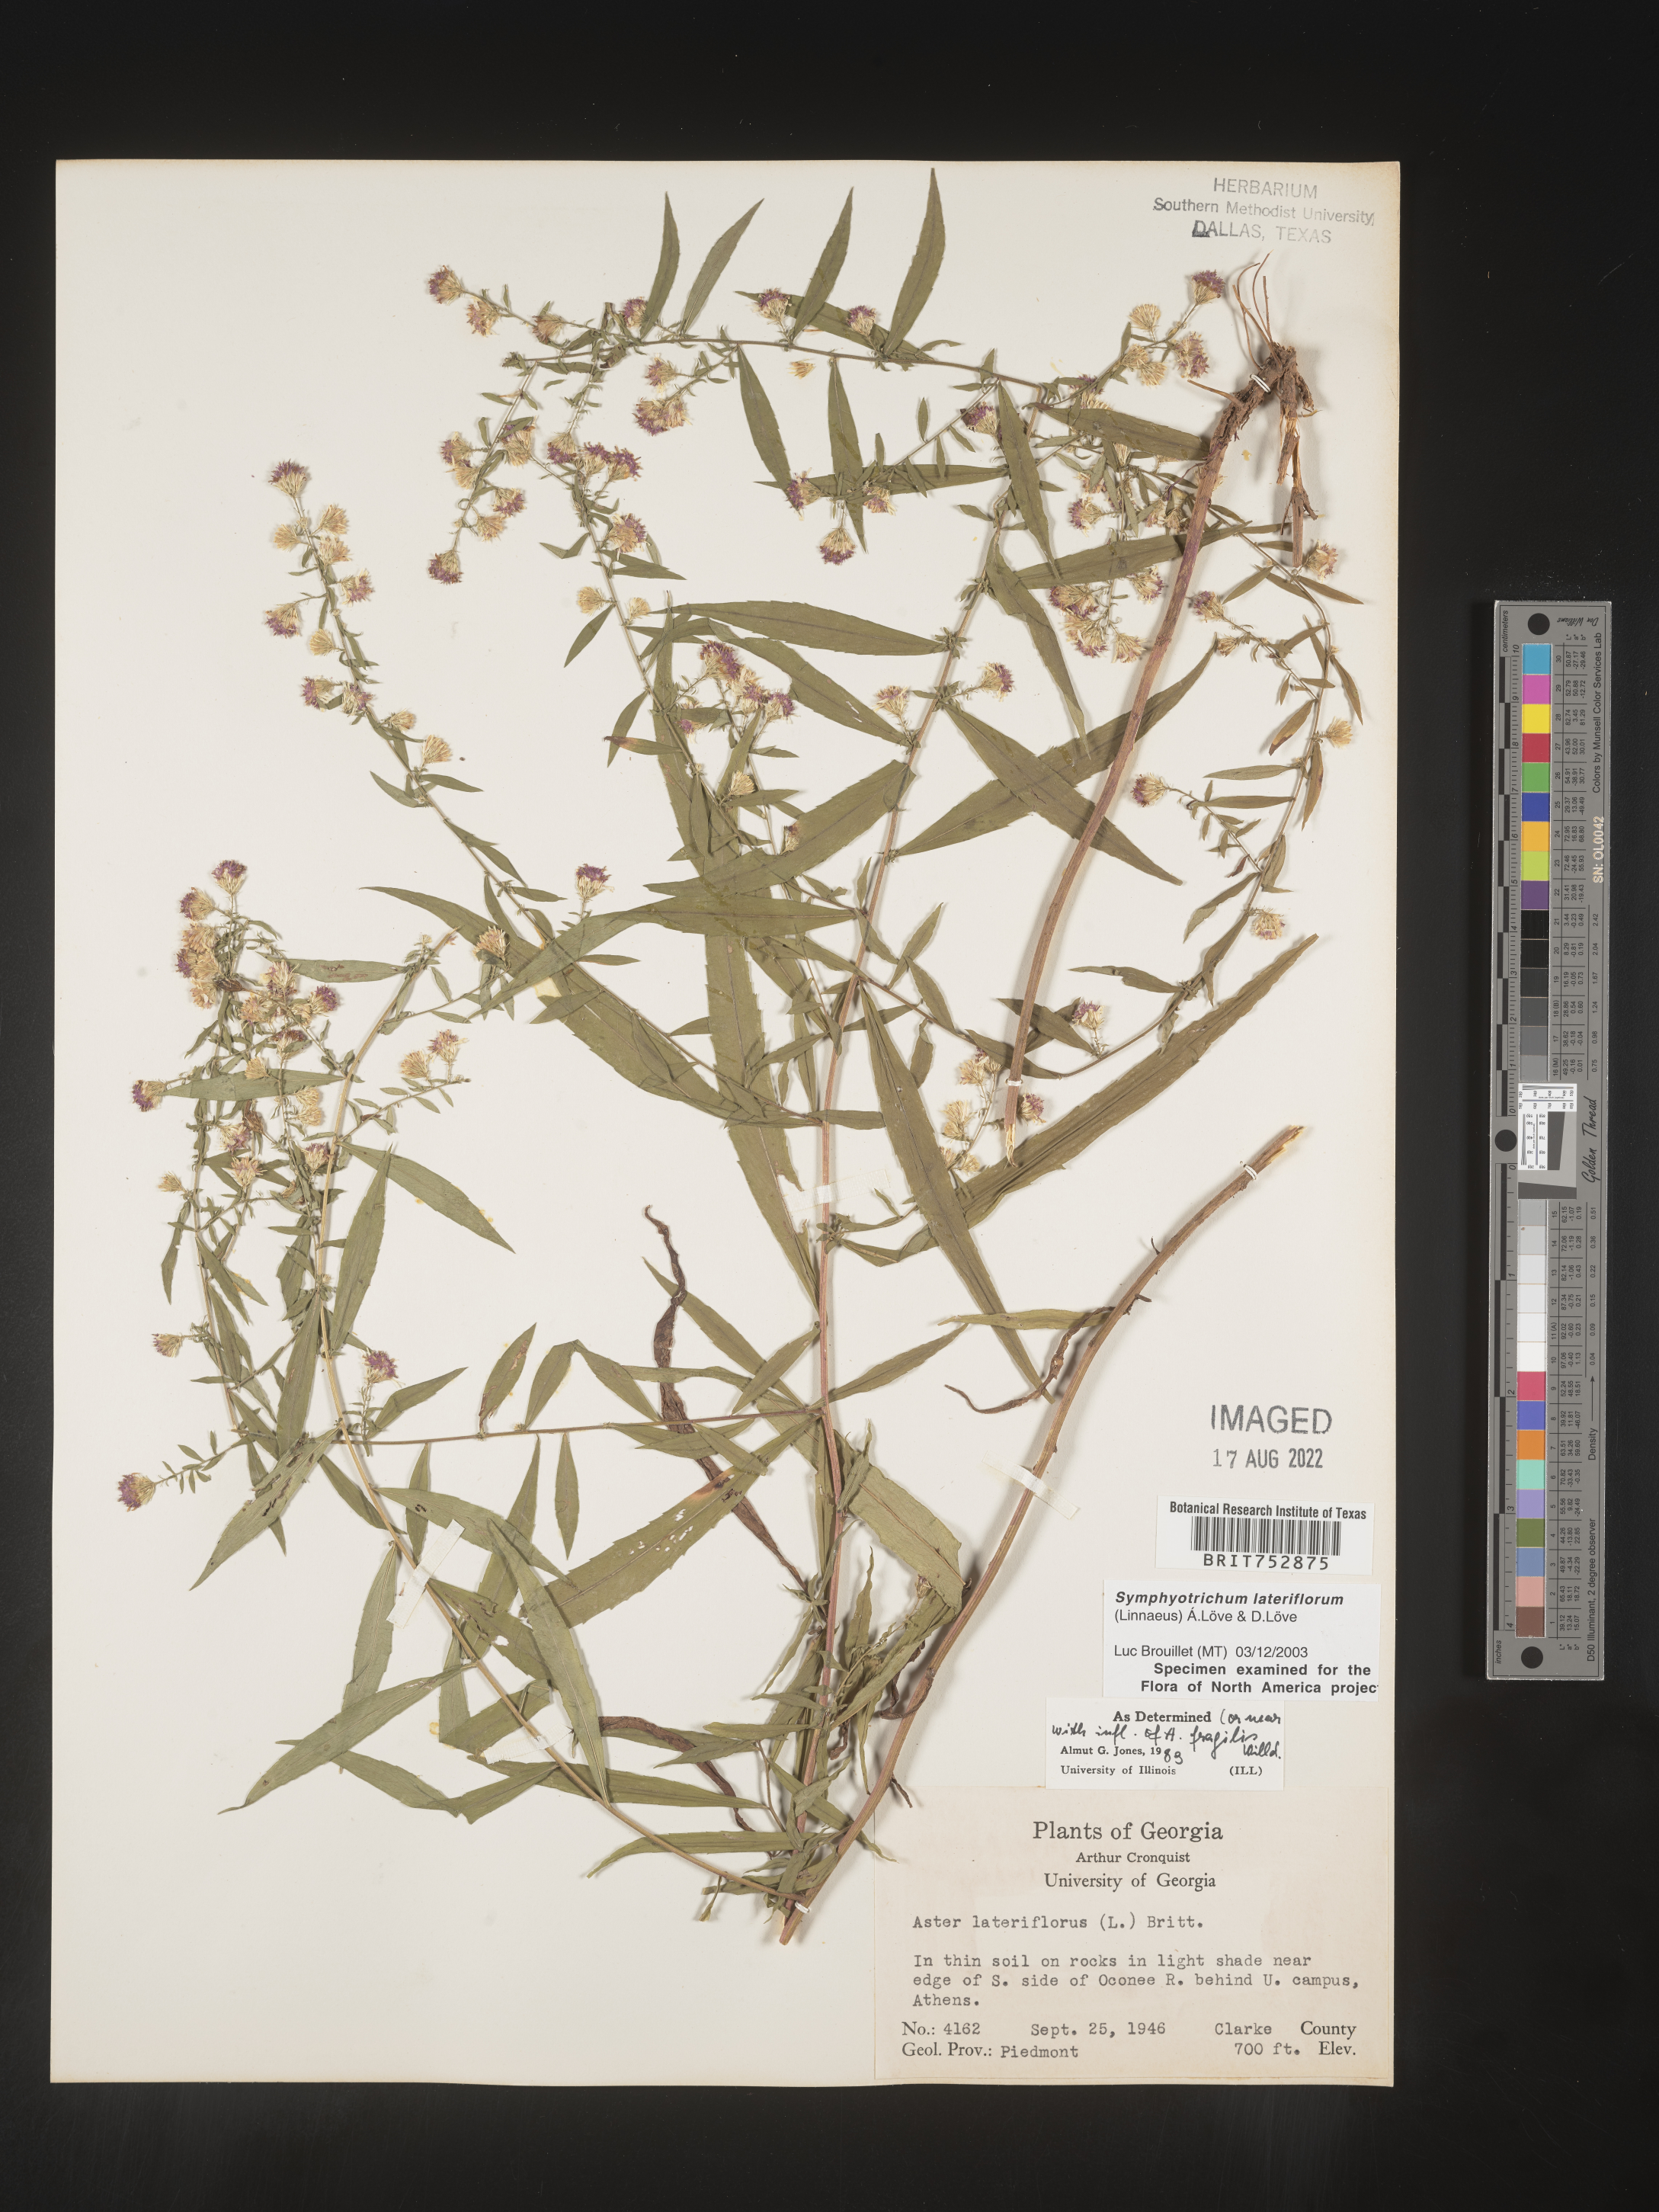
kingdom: Plantae
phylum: Tracheophyta
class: Magnoliopsida
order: Asterales
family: Asteraceae
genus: Symphyotrichum
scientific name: Symphyotrichum lateriflorum
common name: Calico aster
